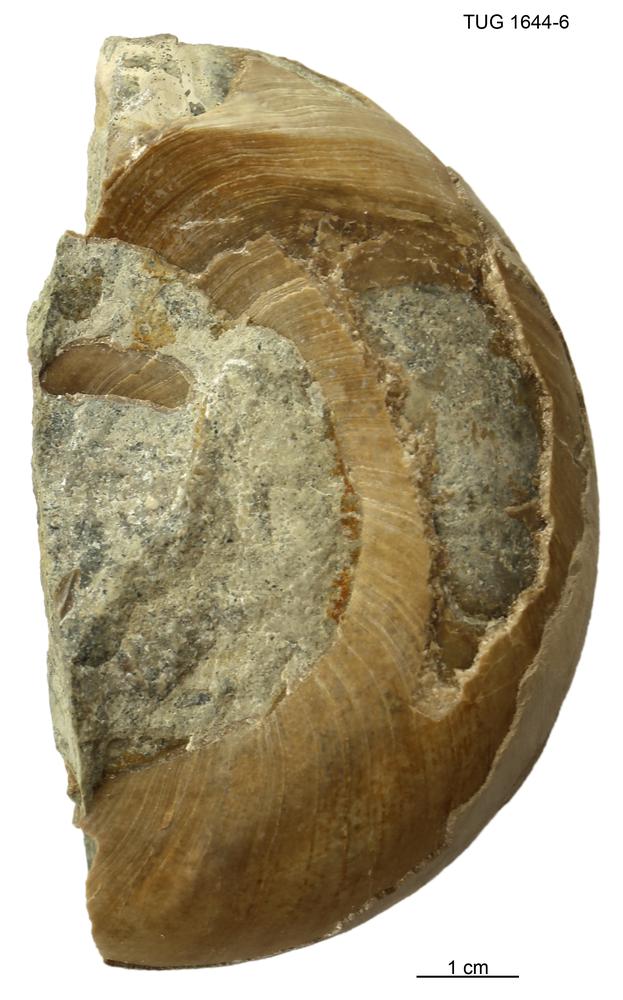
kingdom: Animalia
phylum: Mollusca
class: Cephalopoda
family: Estonioceratidae
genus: Estonioceras
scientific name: Estonioceras
